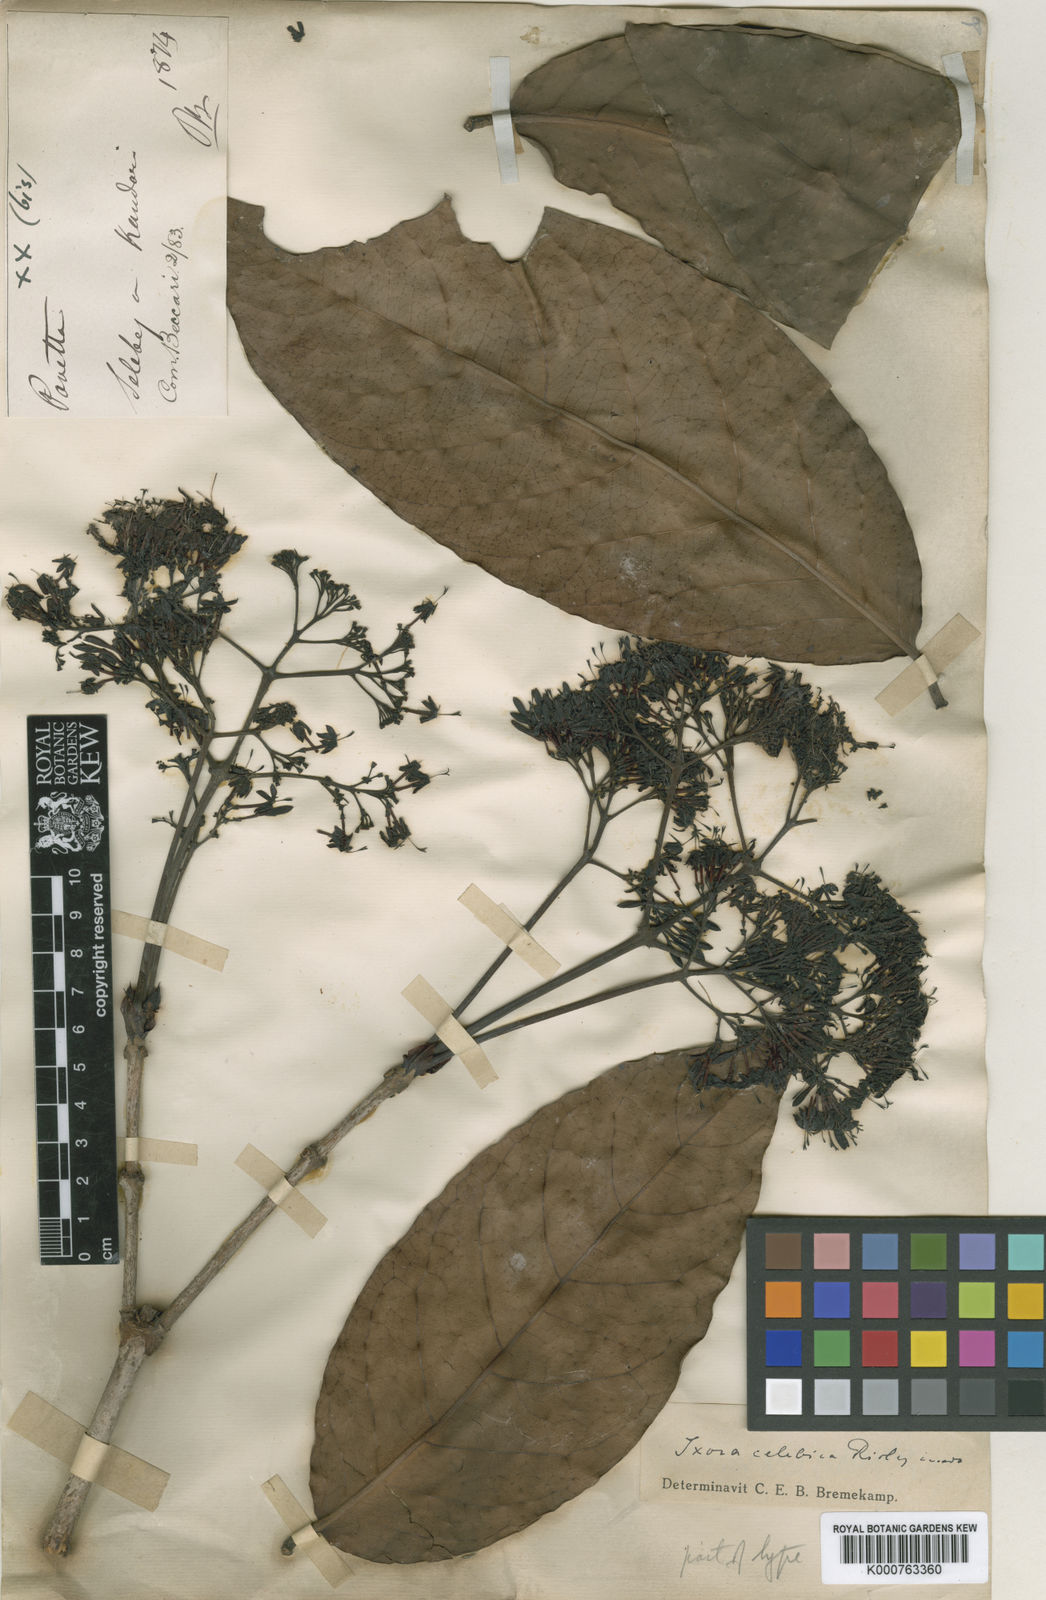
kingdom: Plantae
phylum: Tracheophyta
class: Magnoliopsida
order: Gentianales
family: Rubiaceae
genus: Ixora
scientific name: Ixora celebica
